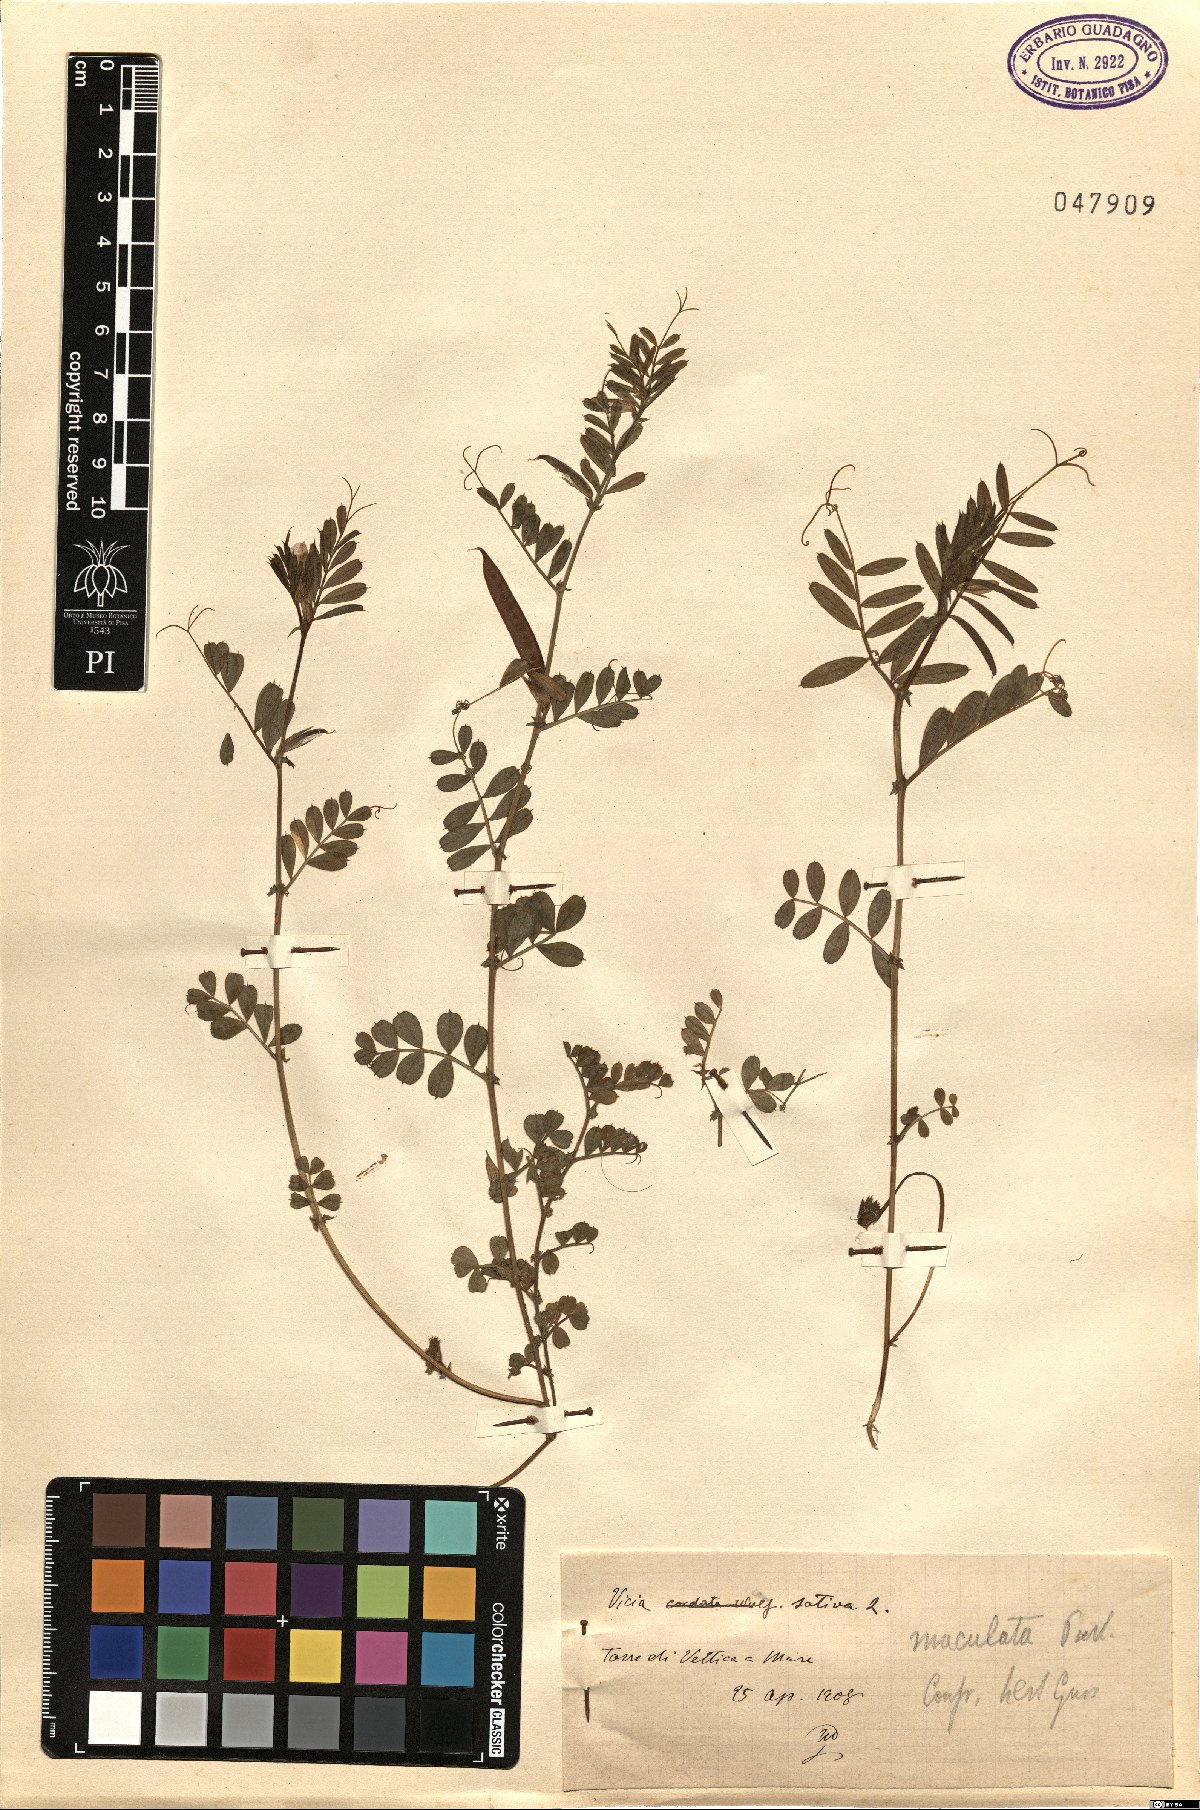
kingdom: Plantae
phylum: Tracheophyta
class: Magnoliopsida
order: Fabales
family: Fabaceae
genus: Vicia
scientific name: Vicia sativa
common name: Garden vetch
